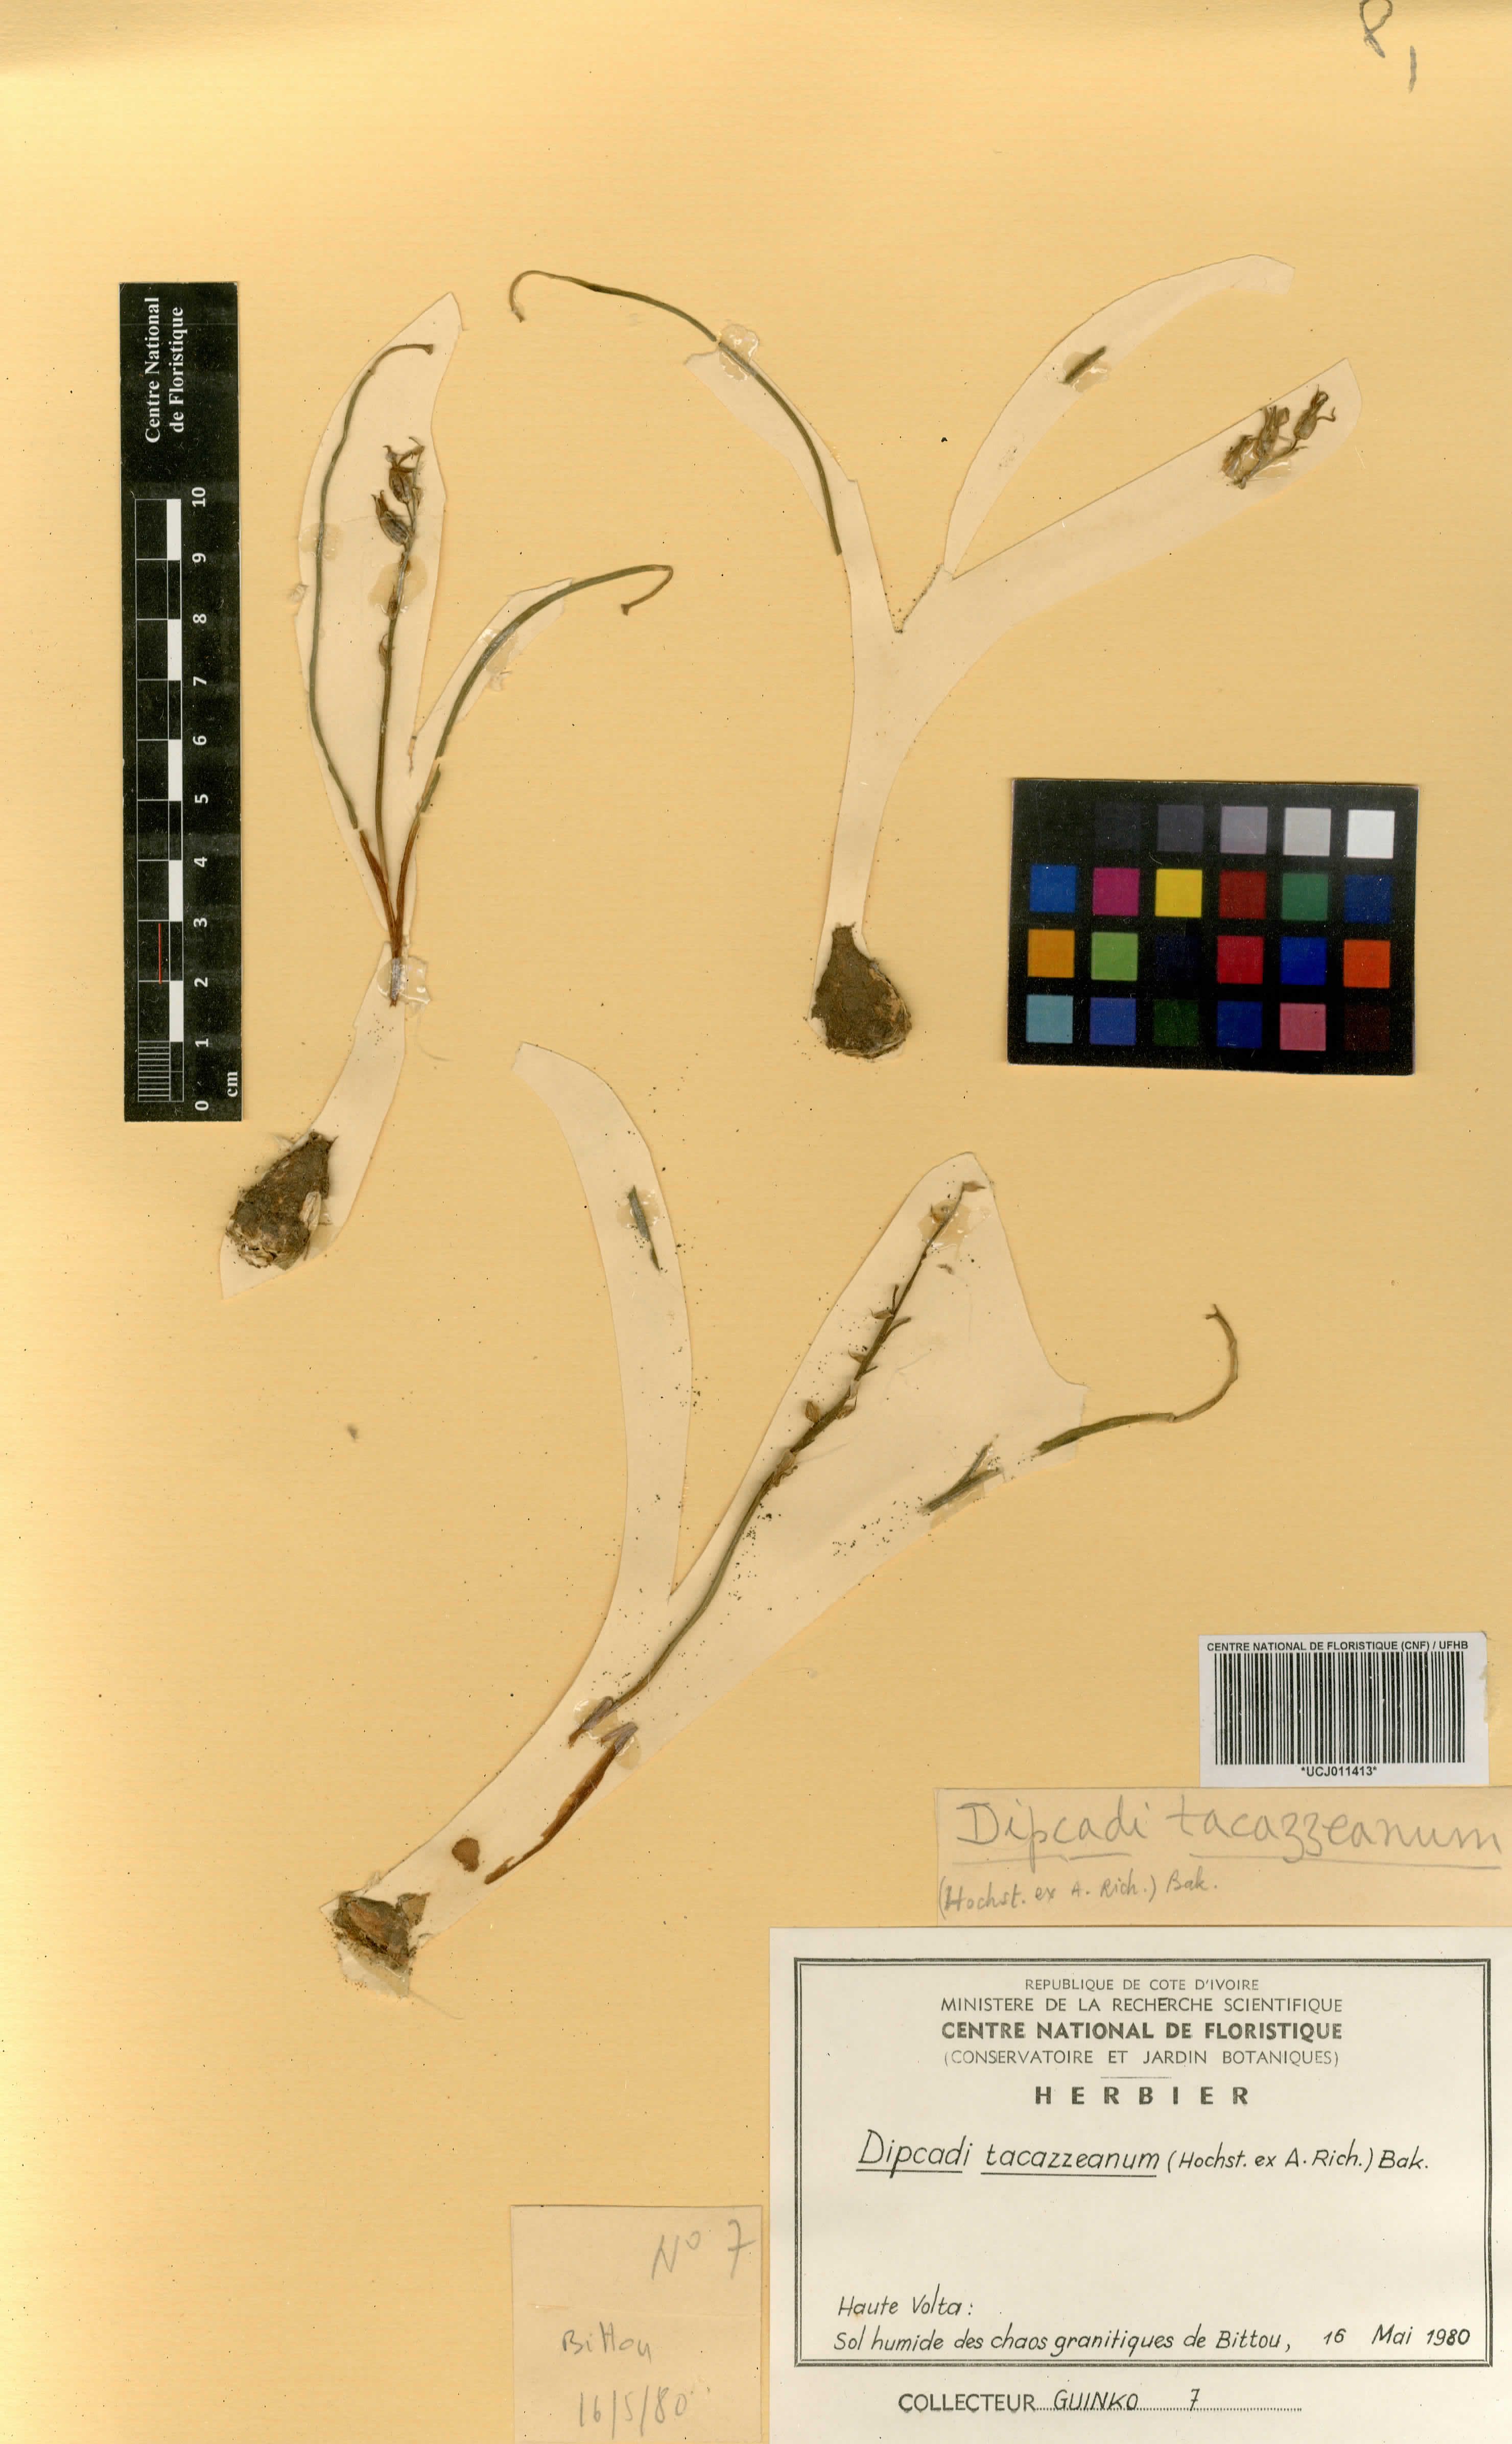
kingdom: Plantae
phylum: Tracheophyta
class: Liliopsida
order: Asparagales
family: Asparagaceae
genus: Dipcadi
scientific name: Dipcadi viride
